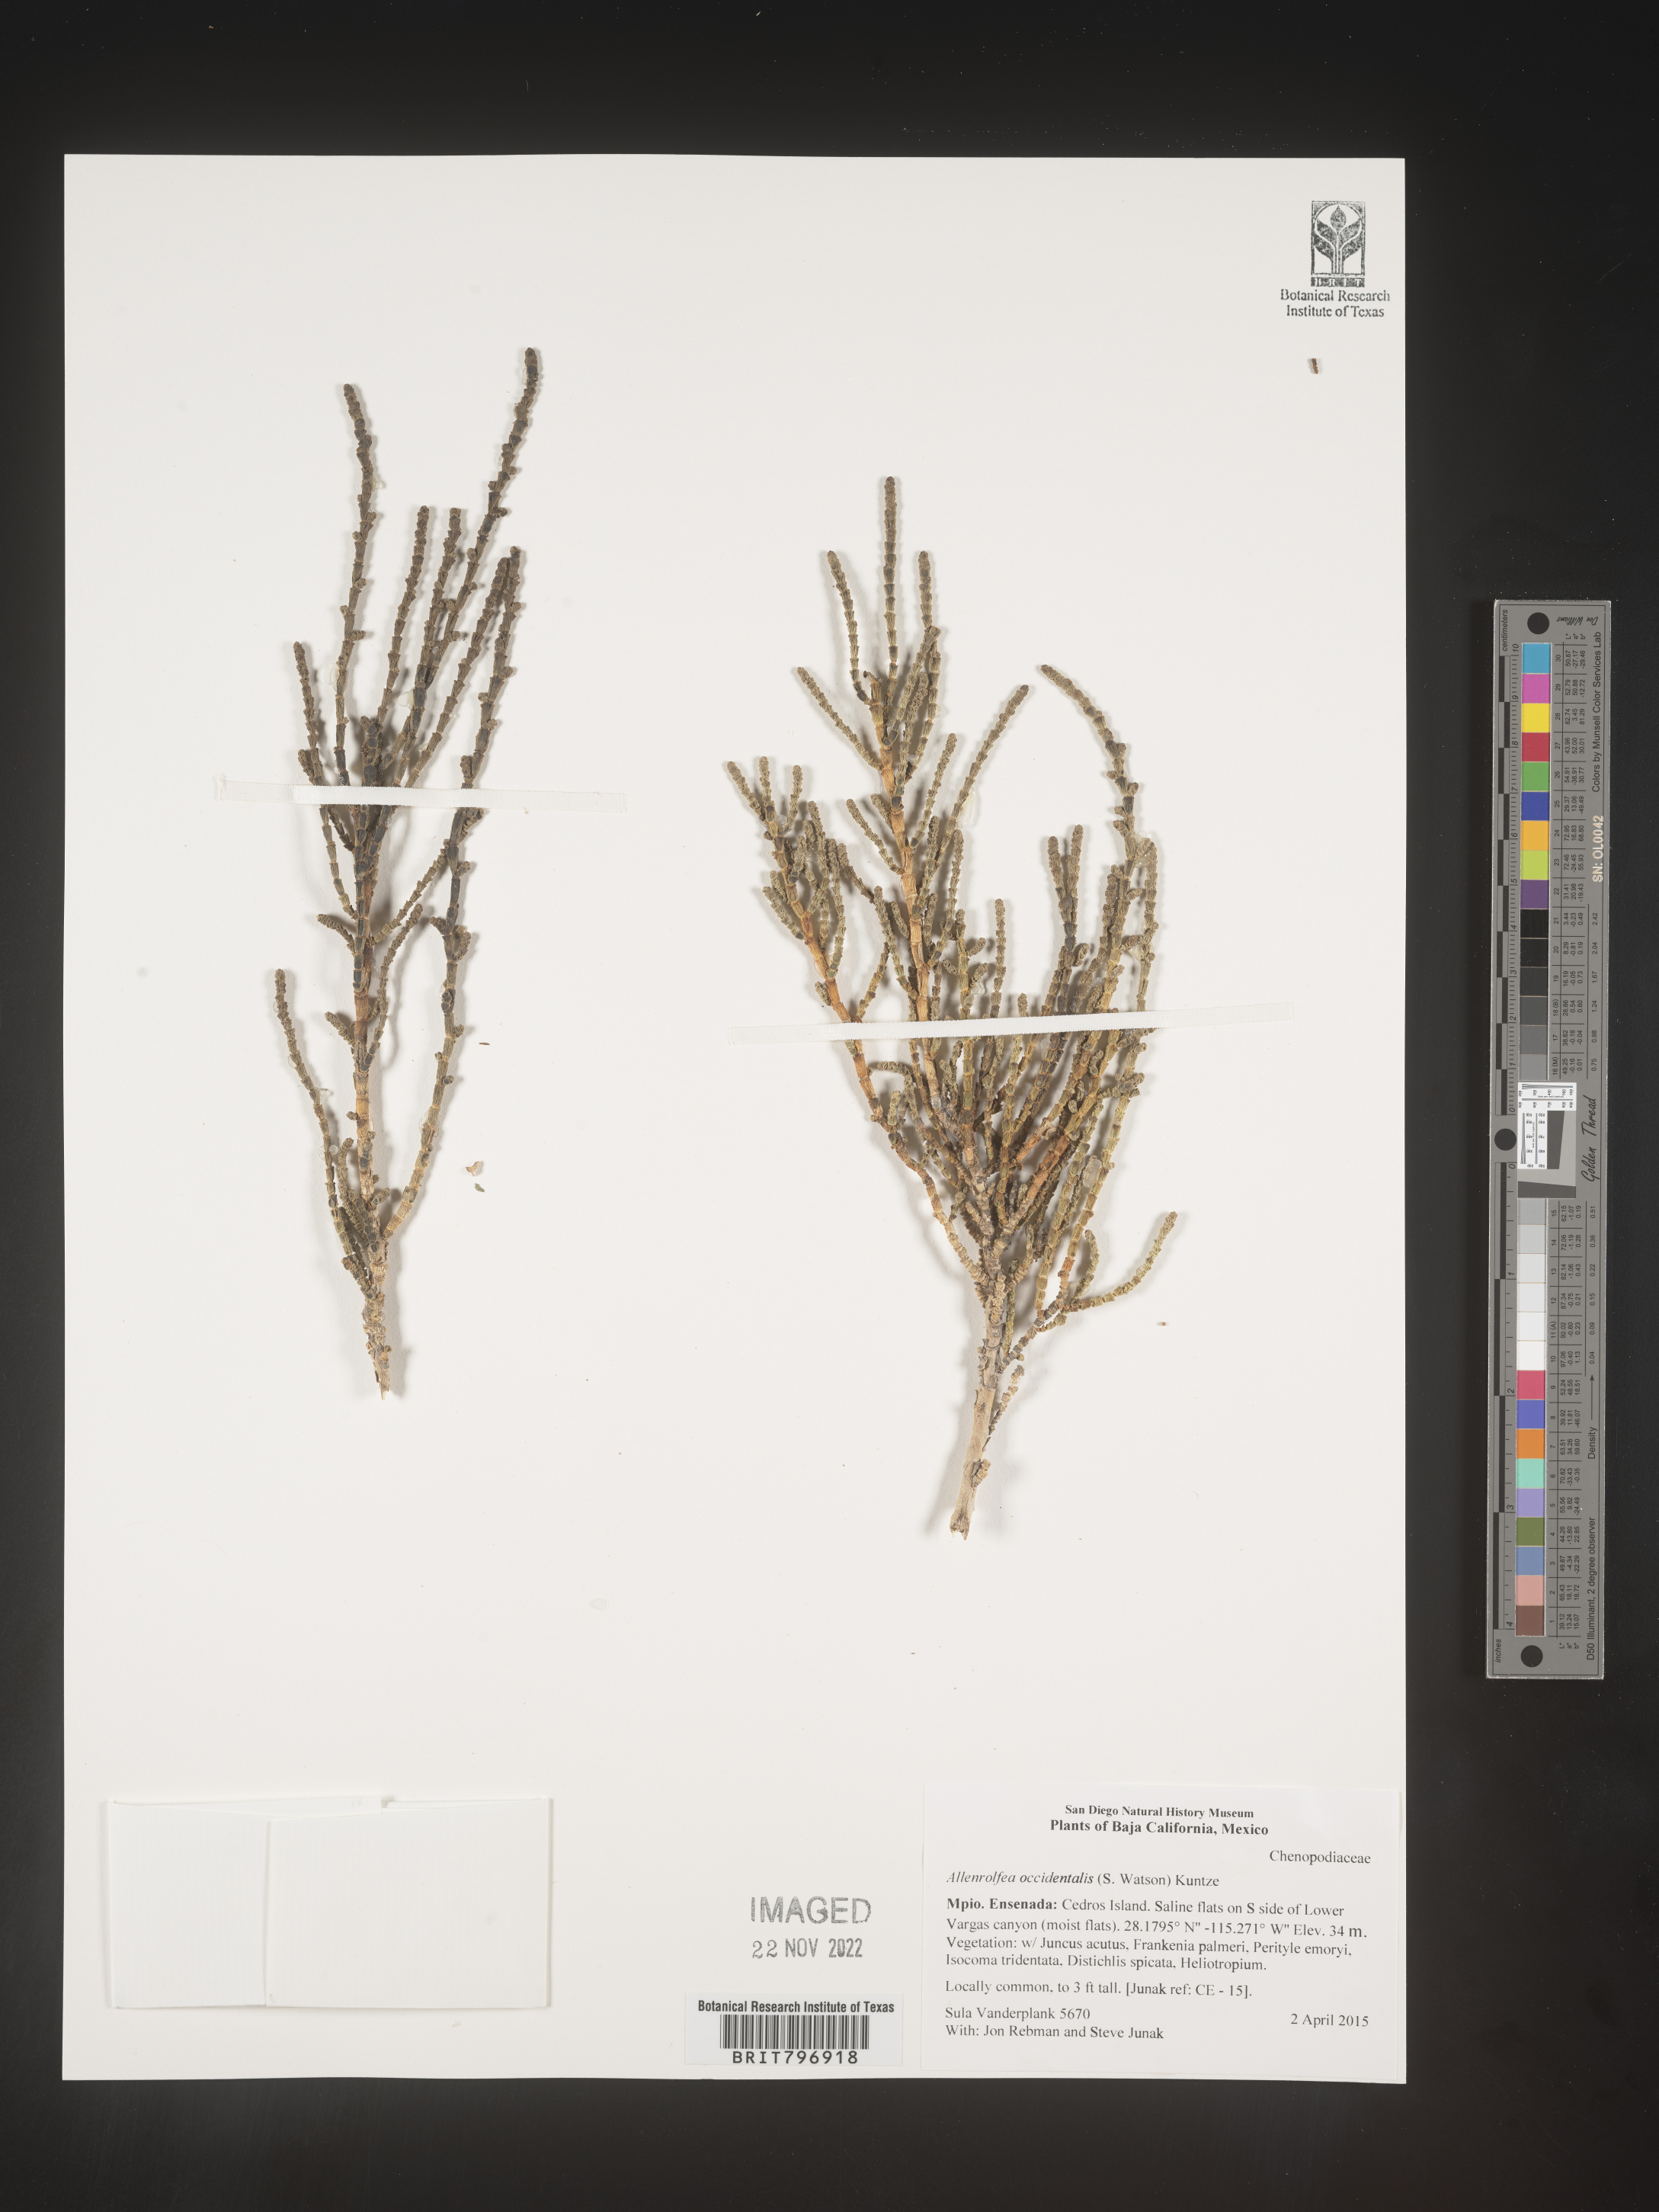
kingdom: Plantae
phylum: Tracheophyta
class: Magnoliopsida
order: Caryophyllales
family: Amaranthaceae
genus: Allenrolfea
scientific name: Allenrolfea
